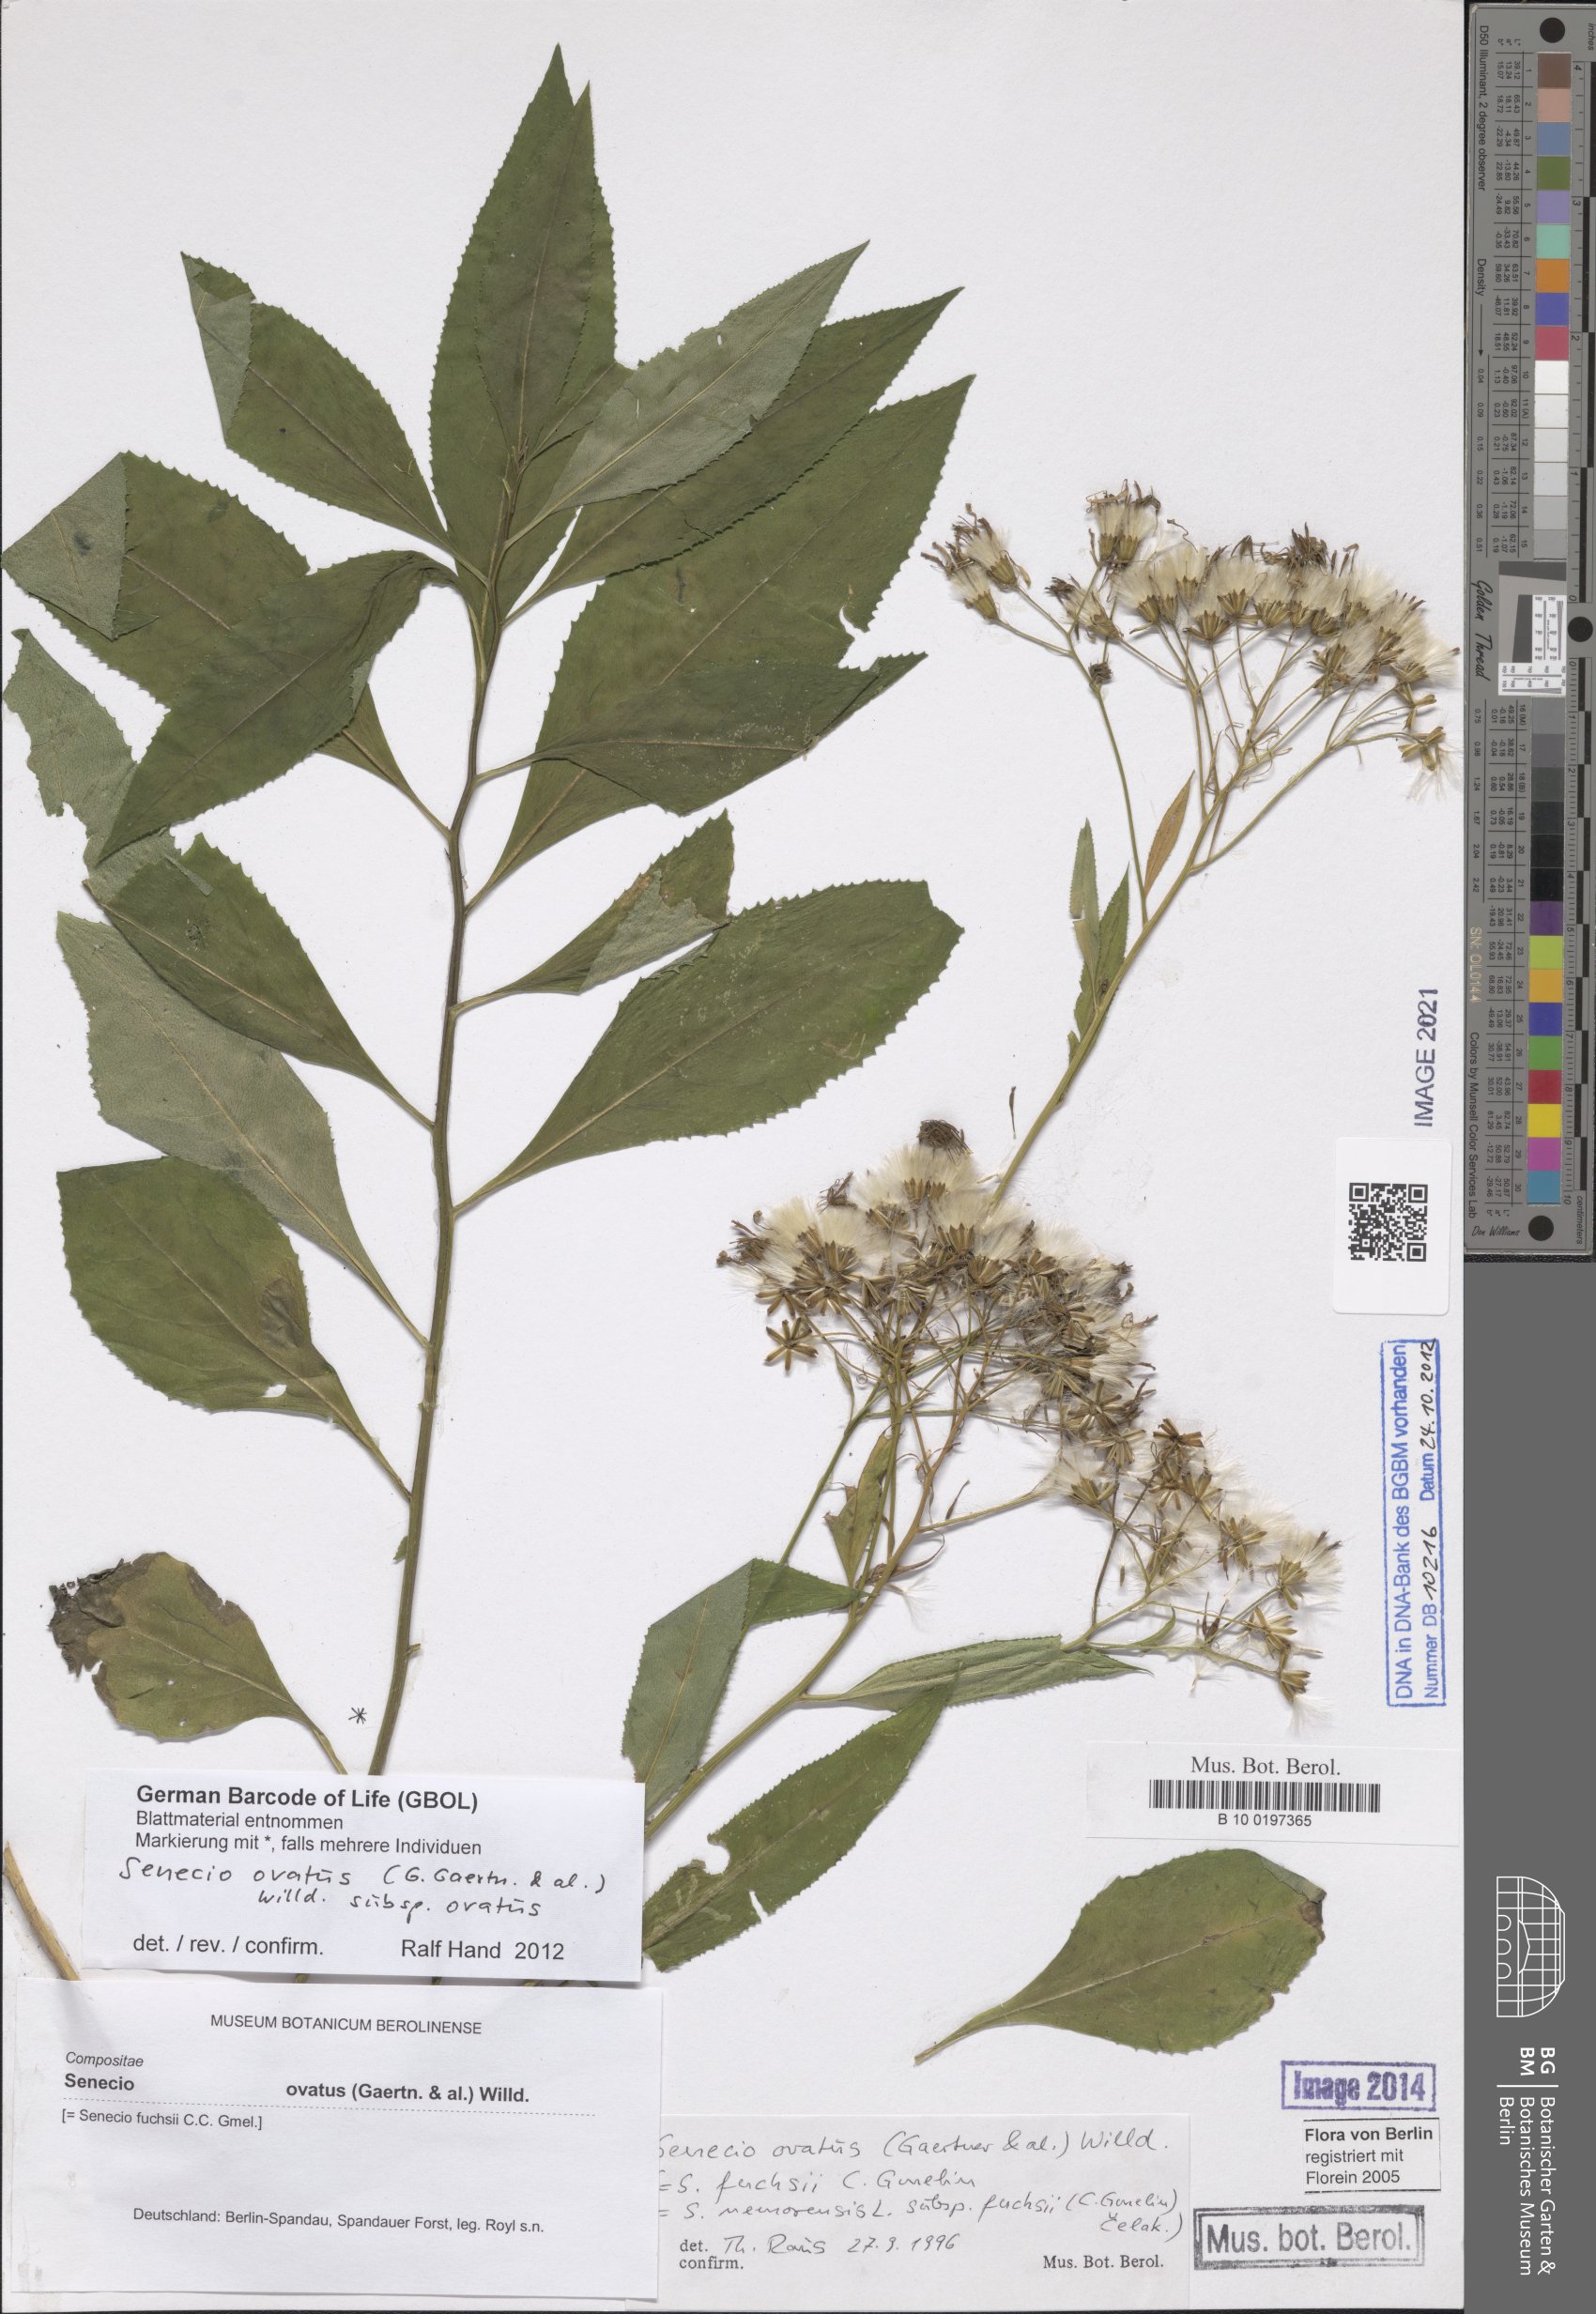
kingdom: Plantae
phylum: Tracheophyta
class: Magnoliopsida
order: Asterales
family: Asteraceae
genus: Senecio
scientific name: Senecio ovatus
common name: Wood ragwort
